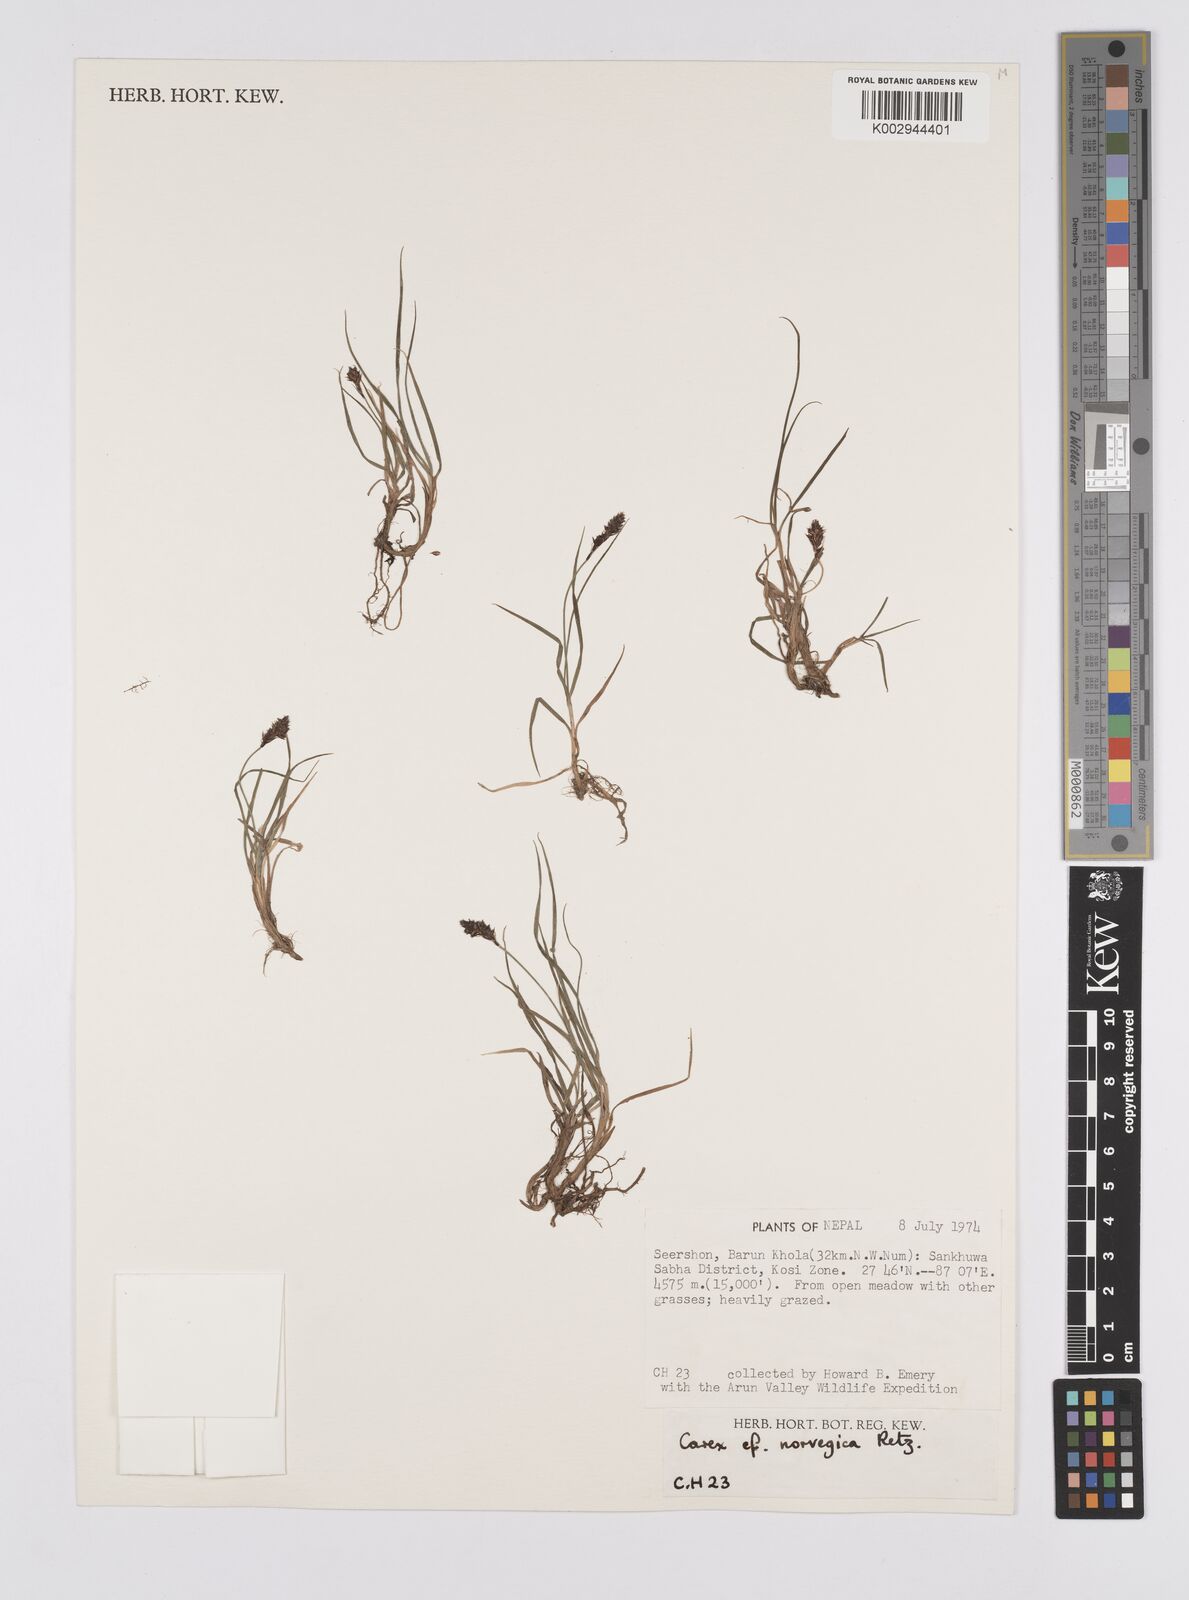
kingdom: Plantae
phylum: Tracheophyta
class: Liliopsida
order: Poales
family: Cyperaceae
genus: Carex
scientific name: Carex norvegica
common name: Close-headed alpine-sedge
